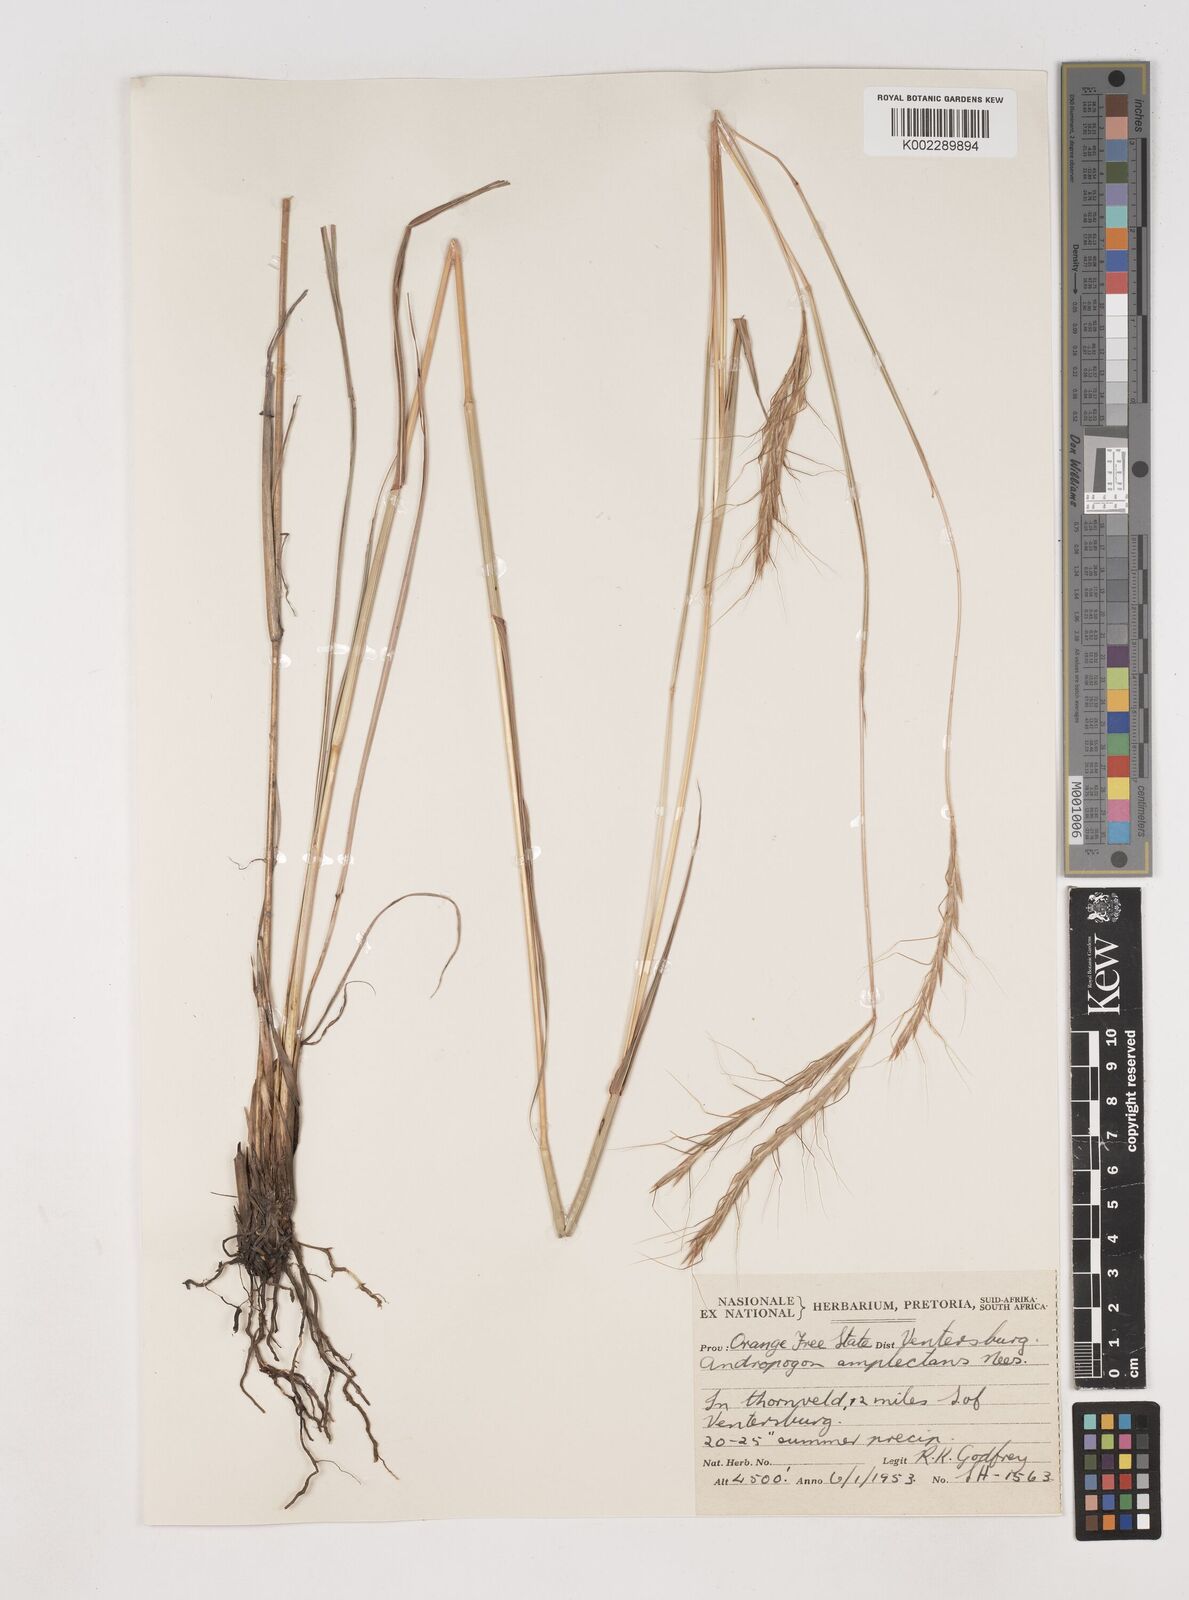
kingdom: Plantae
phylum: Tracheophyta
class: Liliopsida
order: Poales
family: Poaceae
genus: Diheteropogon
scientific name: Diheteropogon amplectens
